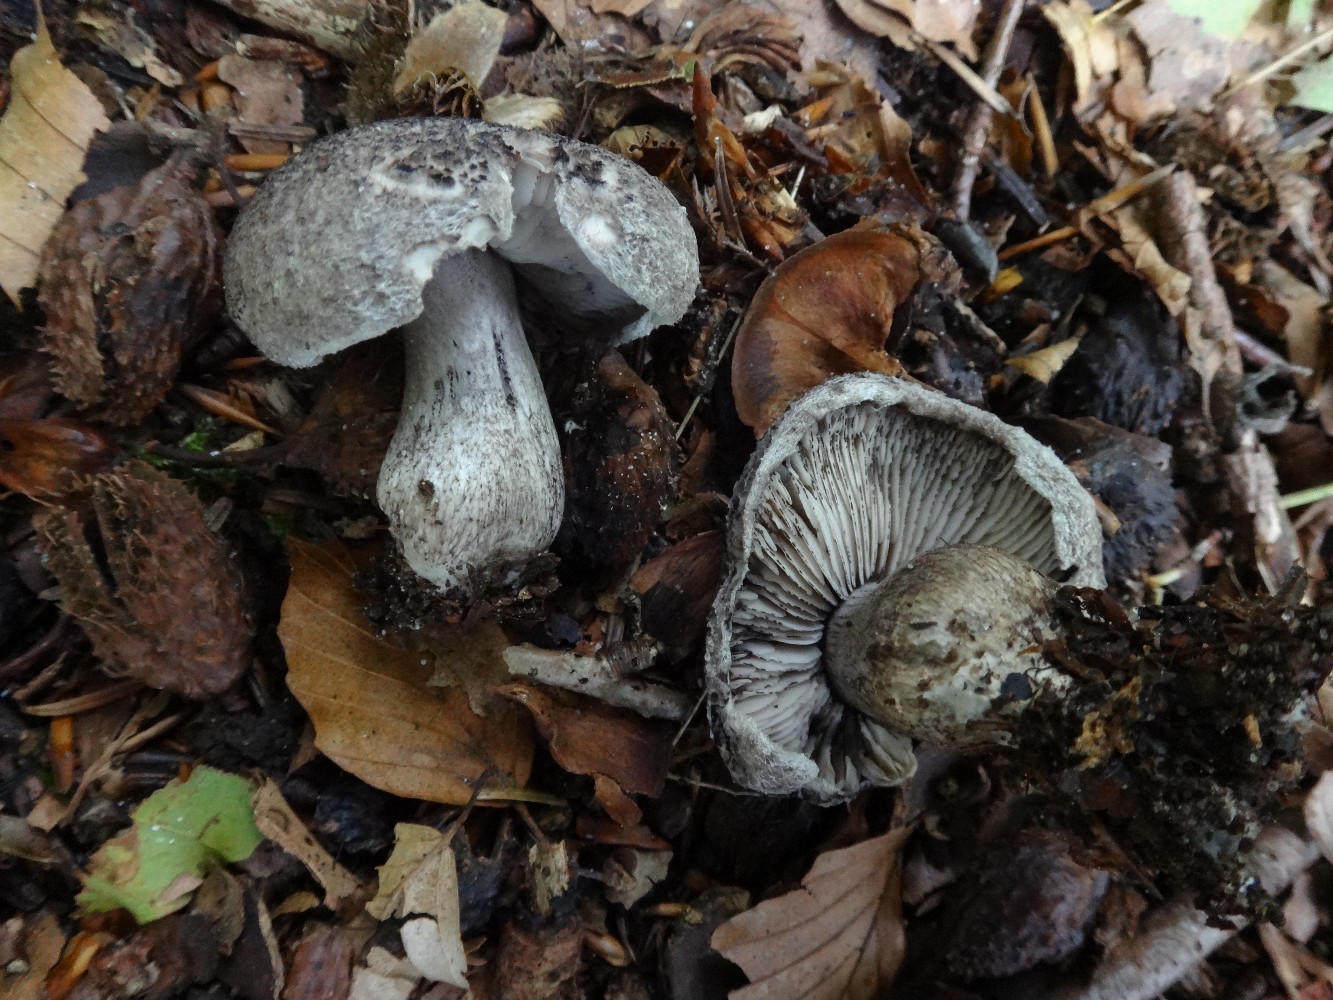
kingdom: Fungi
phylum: Basidiomycota
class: Agaricomycetes
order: Agaricales
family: Tricholomataceae
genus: Tricholoma
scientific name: Tricholoma atrosquamosum
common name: sortskællet ridderhat
